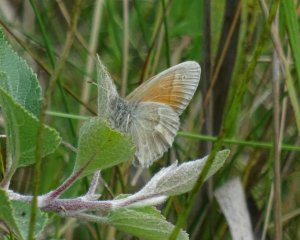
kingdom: Animalia
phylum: Arthropoda
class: Insecta
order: Lepidoptera
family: Nymphalidae
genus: Coenonympha
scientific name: Coenonympha tullia
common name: Large Heath
